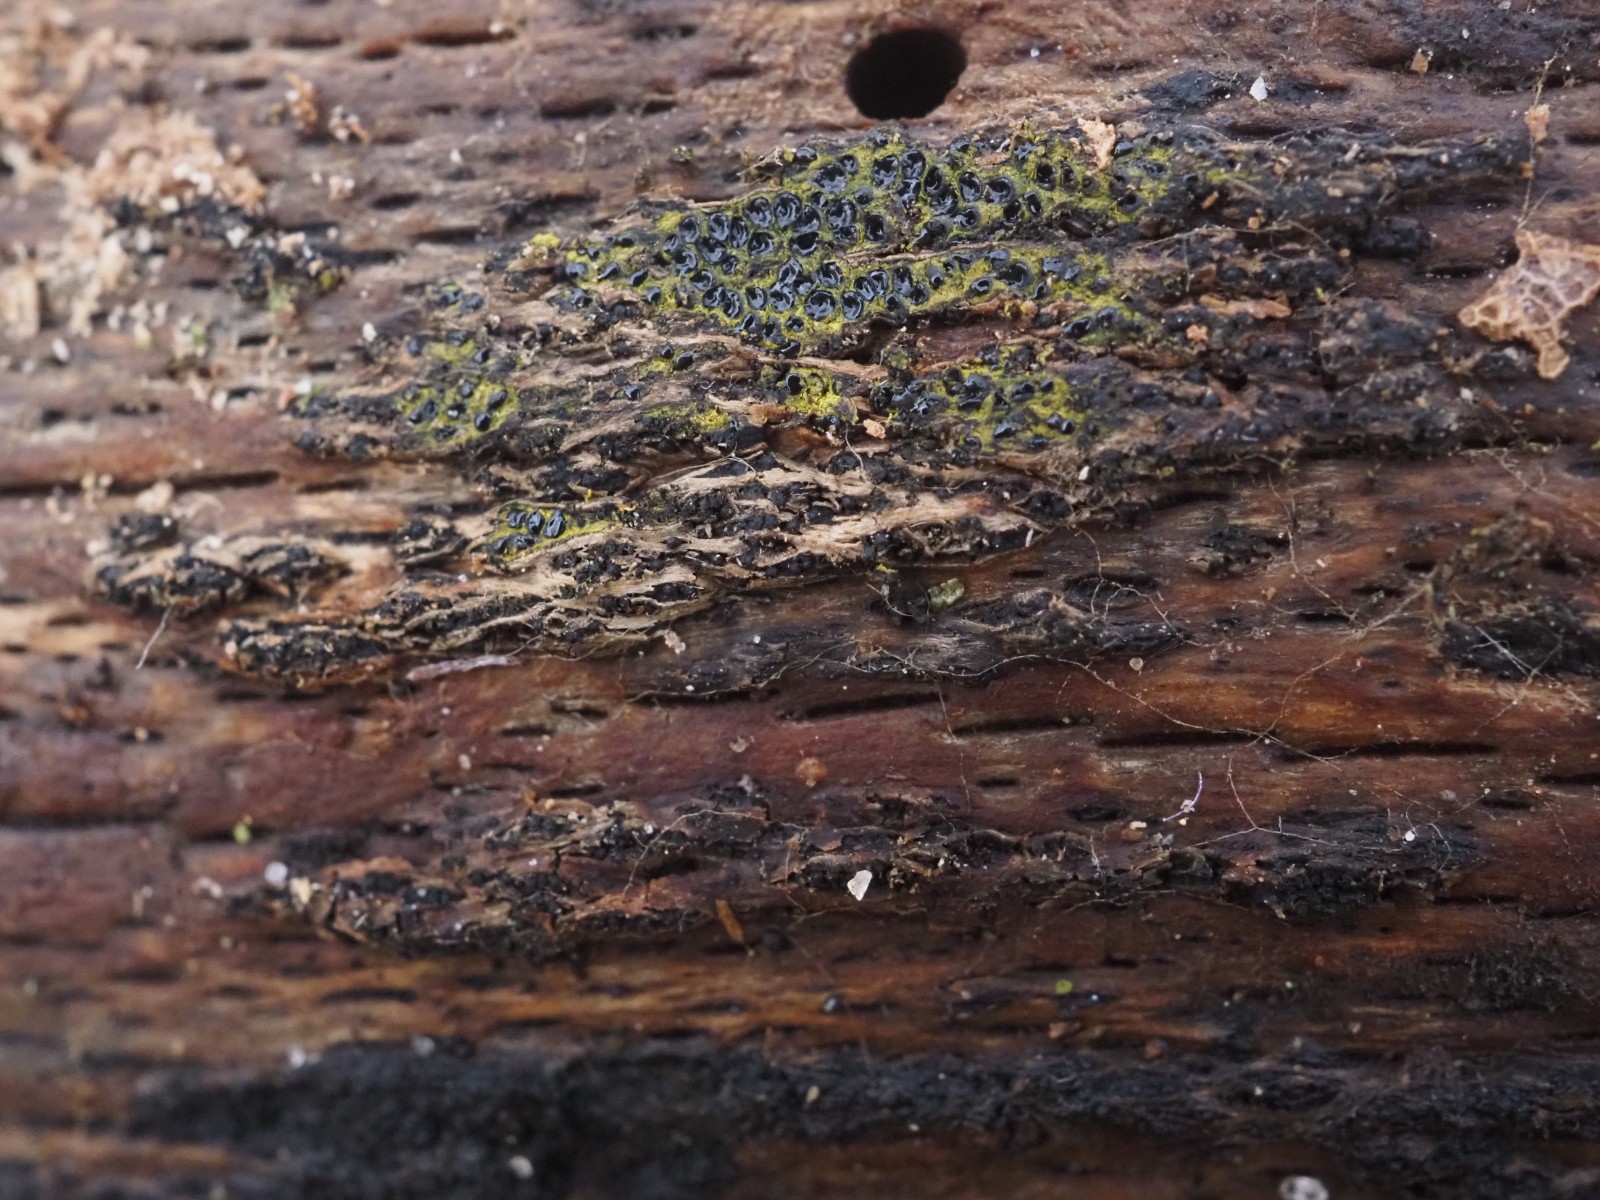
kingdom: Fungi
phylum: Ascomycota
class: Sordariomycetes
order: Xylariales
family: Diatrypaceae
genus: Eutypa
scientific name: Eutypa flavovirens
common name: grønkødet kulskorpe
